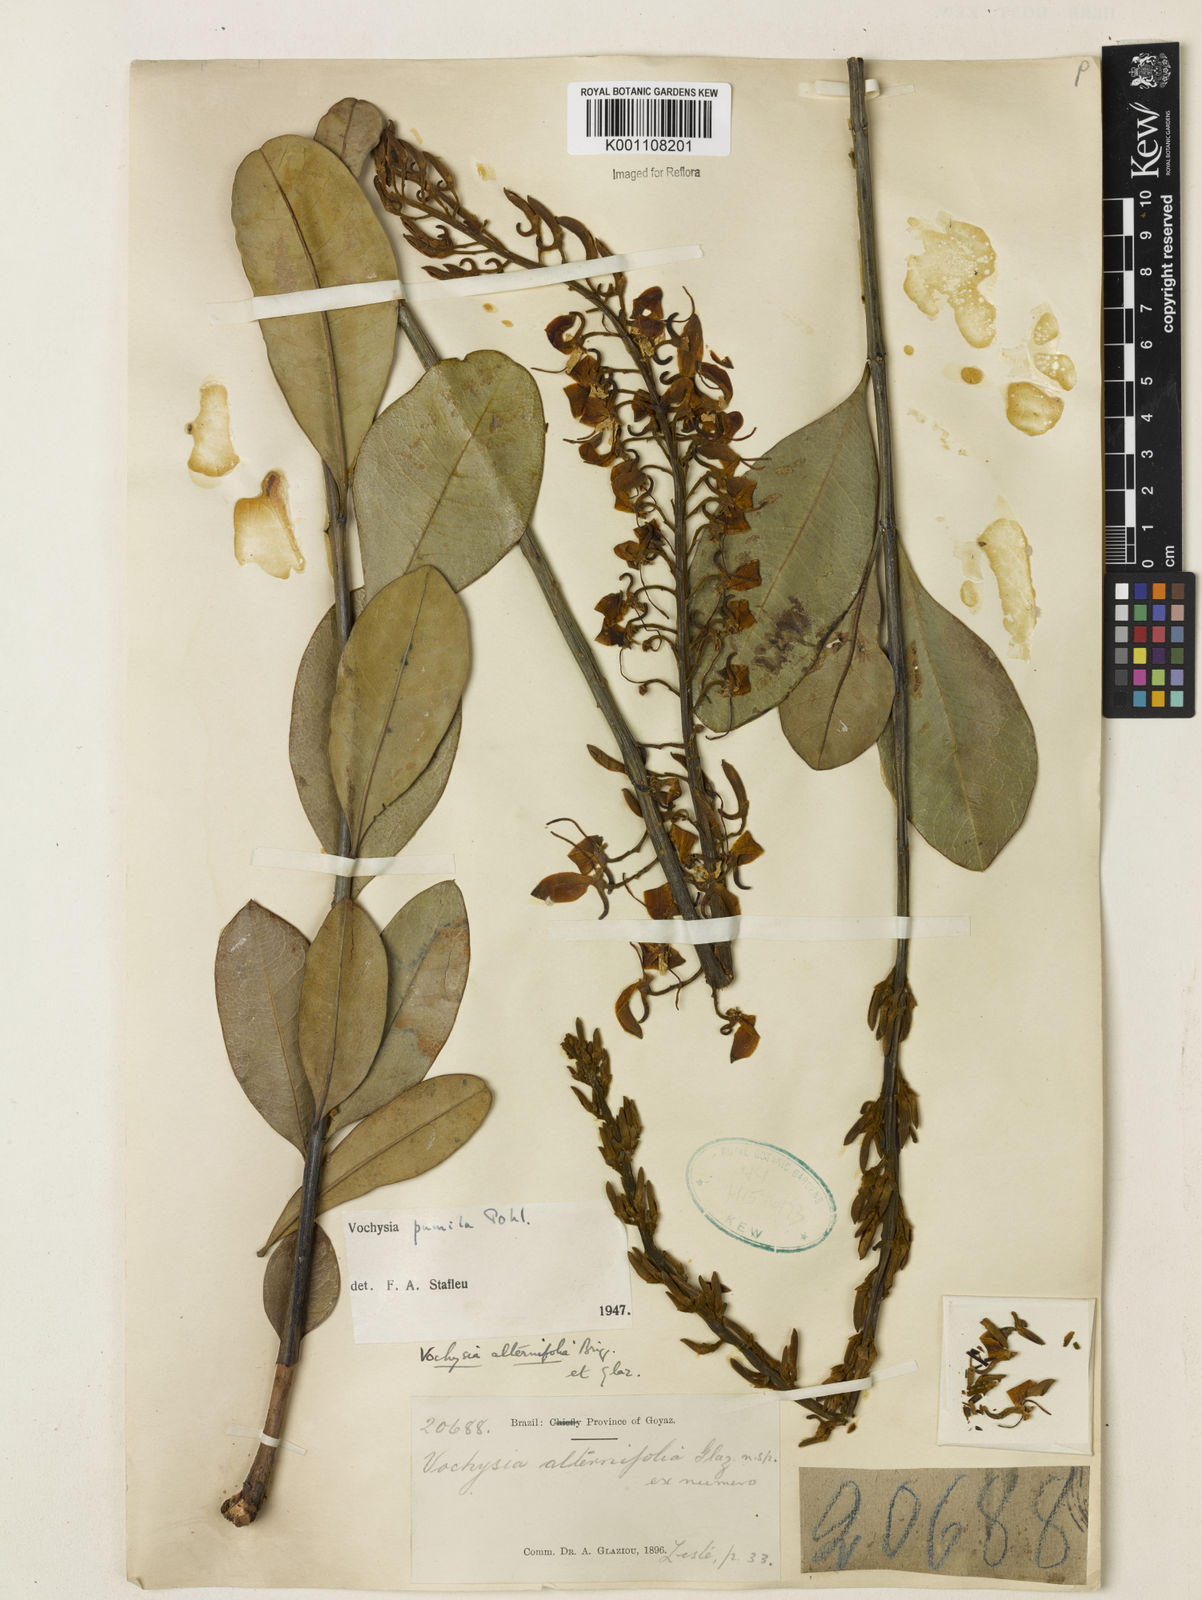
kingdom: Plantae
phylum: Tracheophyta
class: Magnoliopsida
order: Myrtales
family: Vochysiaceae
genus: Vochysia
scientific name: Vochysia pumila
